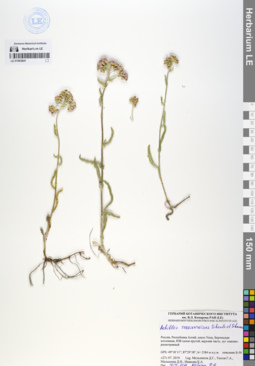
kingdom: Plantae
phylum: Tracheophyta
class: Magnoliopsida
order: Asterales
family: Asteraceae
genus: Achillea
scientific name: Achillea sergievskiana
